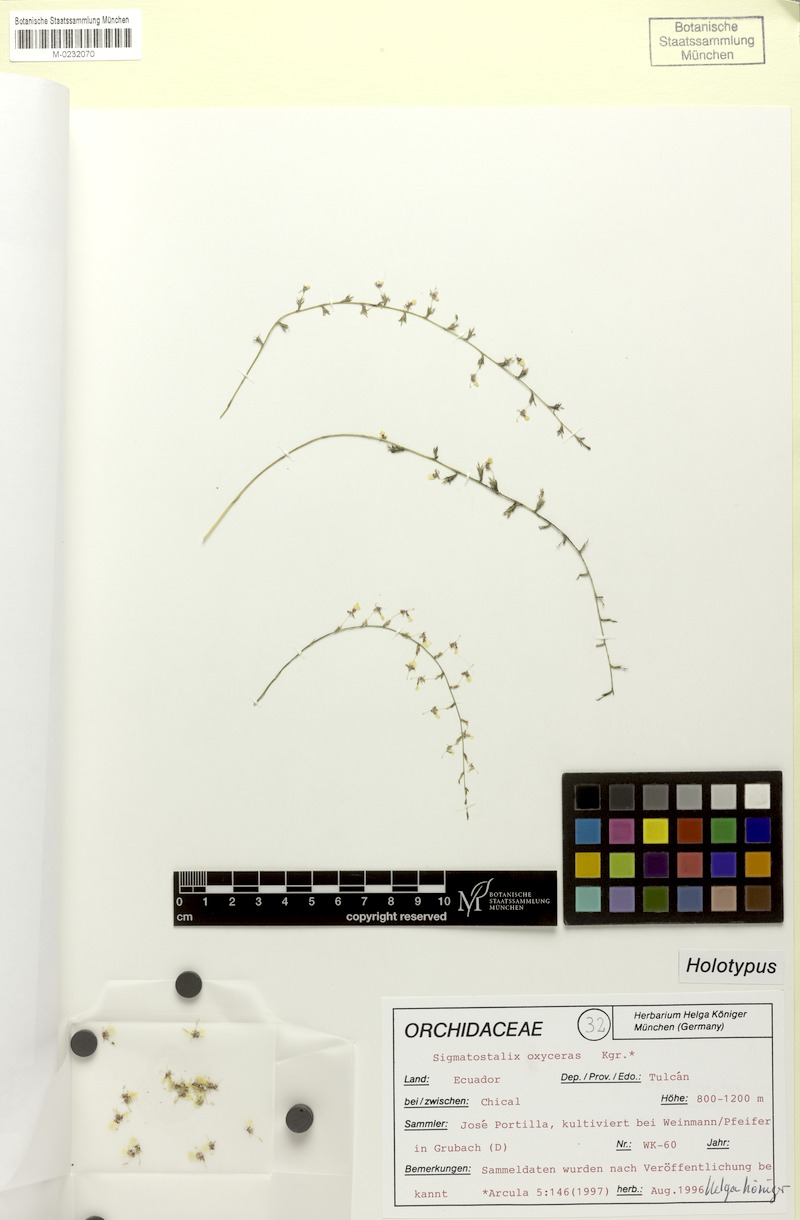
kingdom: Plantae
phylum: Tracheophyta
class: Liliopsida
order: Asparagales
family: Orchidaceae
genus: Oncidium
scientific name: Oncidium oxyceras
